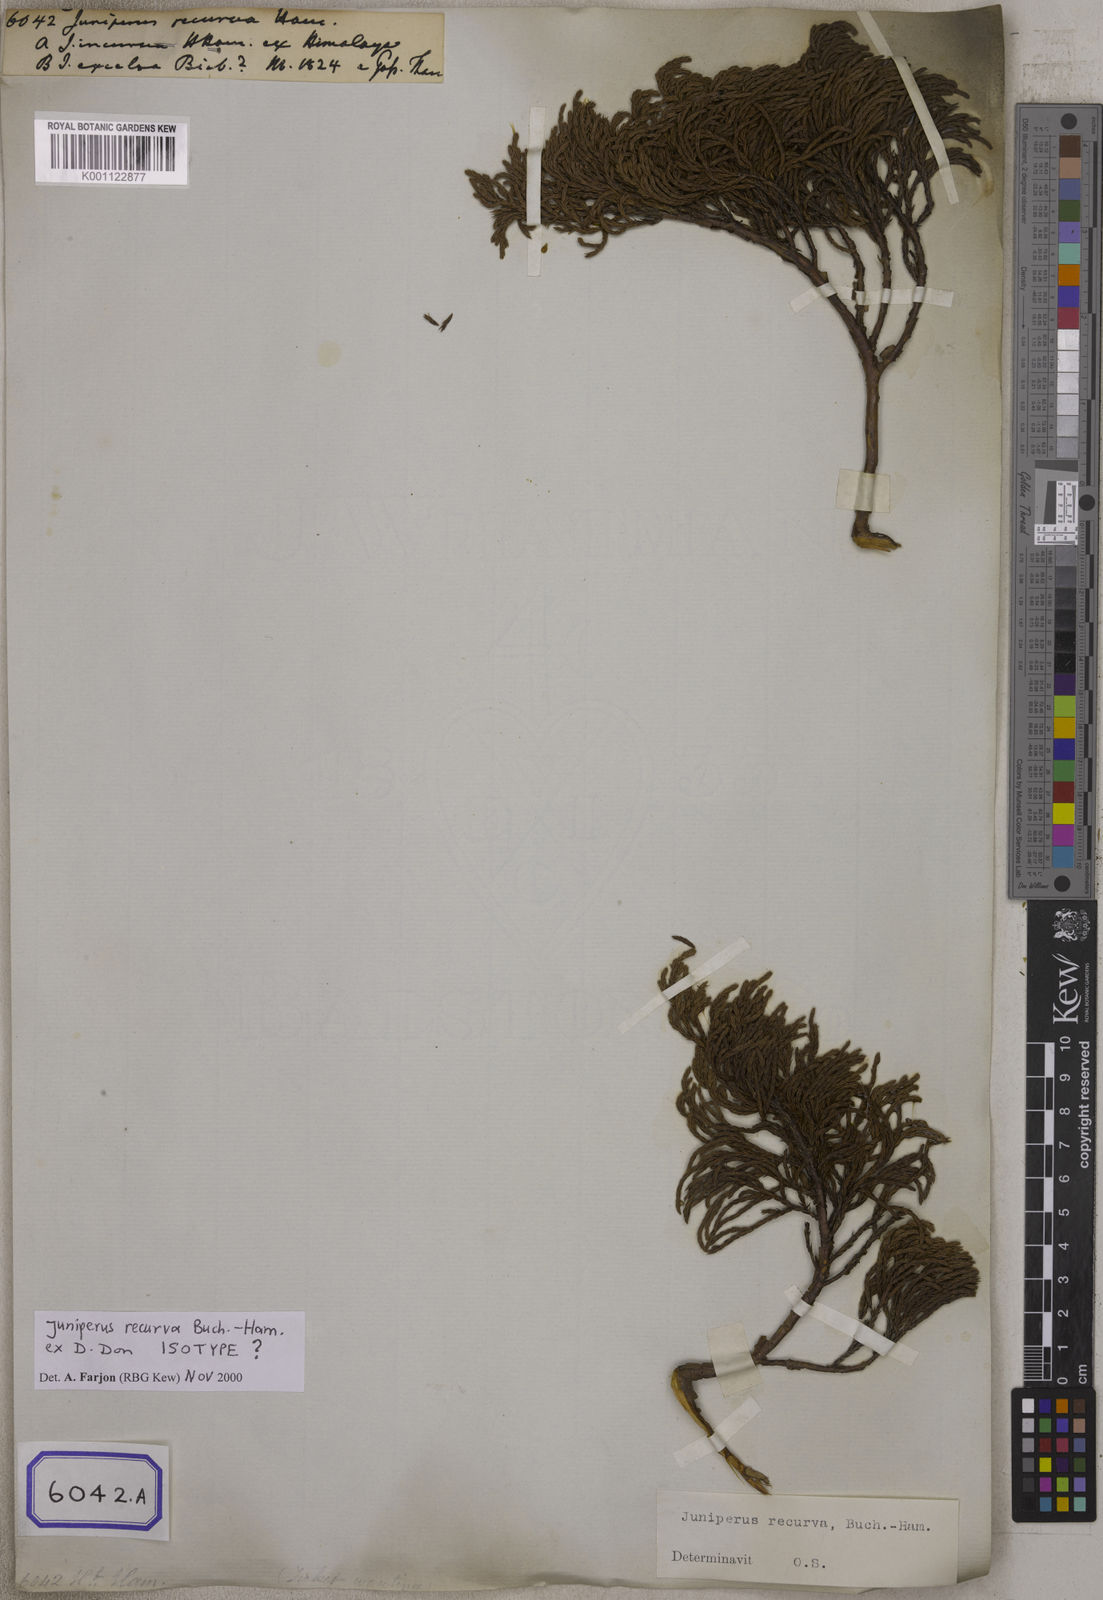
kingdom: Plantae
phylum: Tracheophyta
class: Pinopsida
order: Pinales
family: Cupressaceae
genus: Juniperus
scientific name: Juniperus recurva
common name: Drooping juniper
